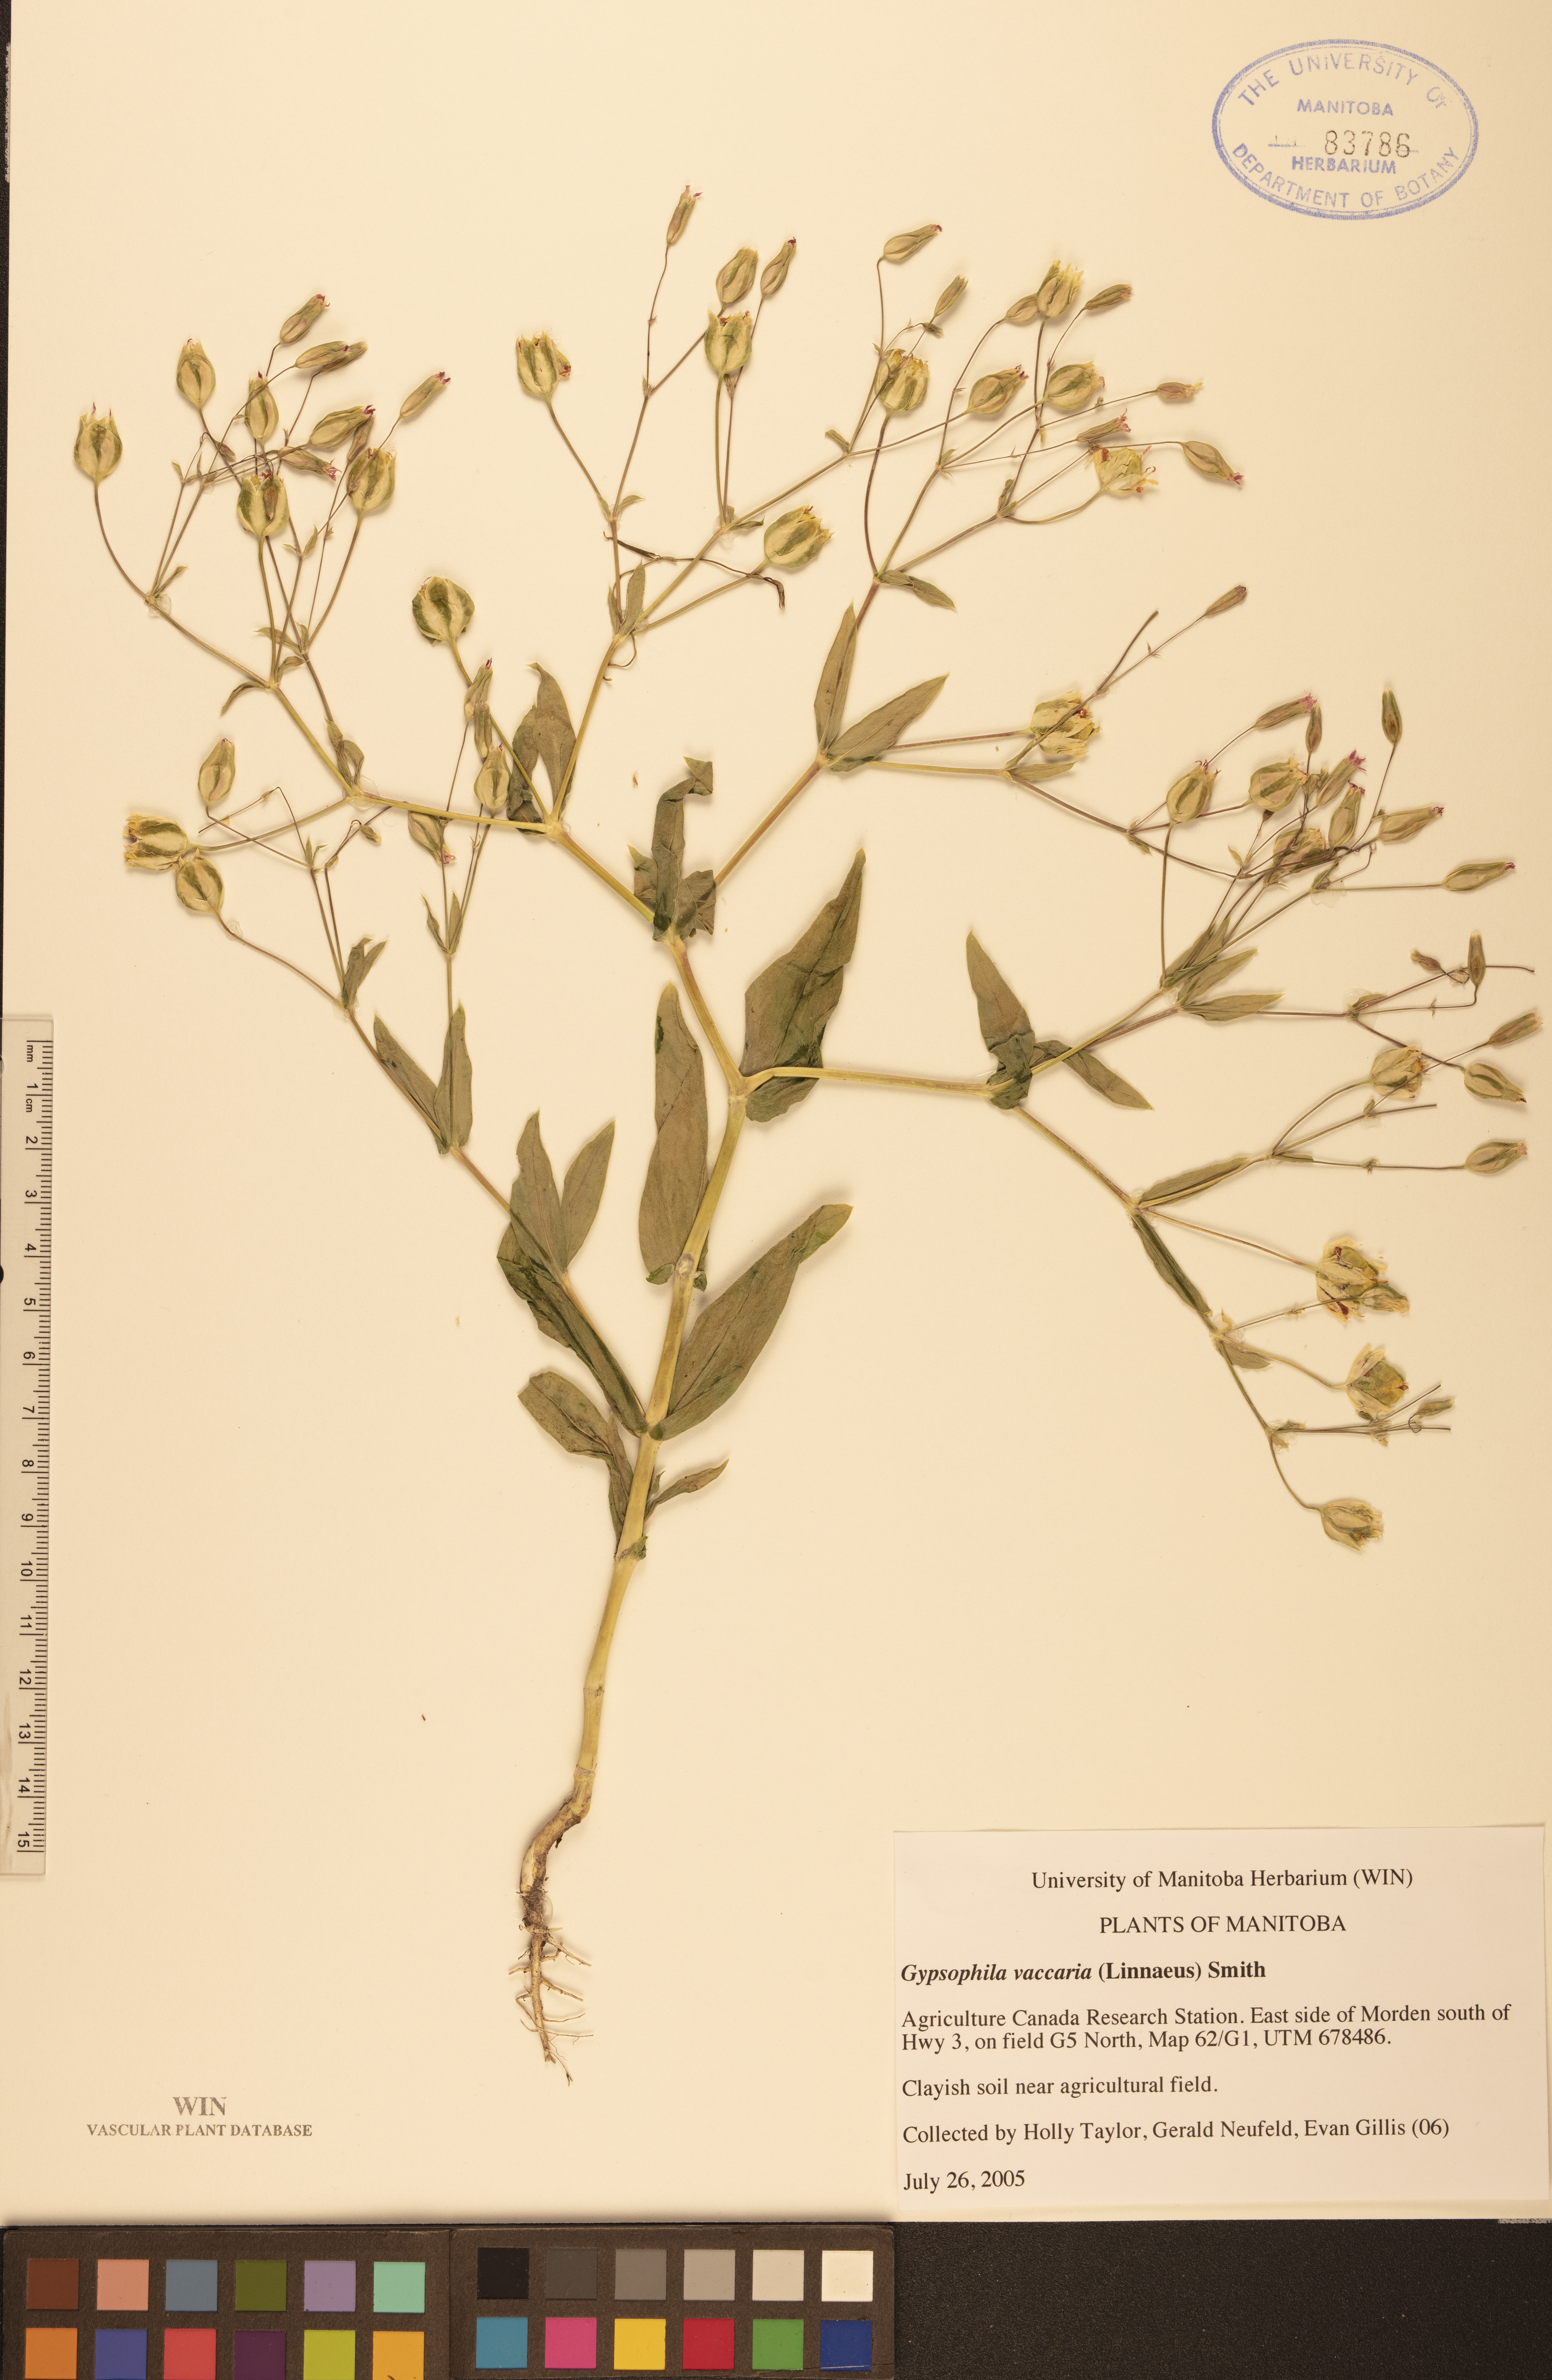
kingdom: Plantae
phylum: Tracheophyta
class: Magnoliopsida
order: Caryophyllales
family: Caryophyllaceae
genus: Gypsophila
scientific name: Gypsophila vaccaria
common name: Cow soapwort
